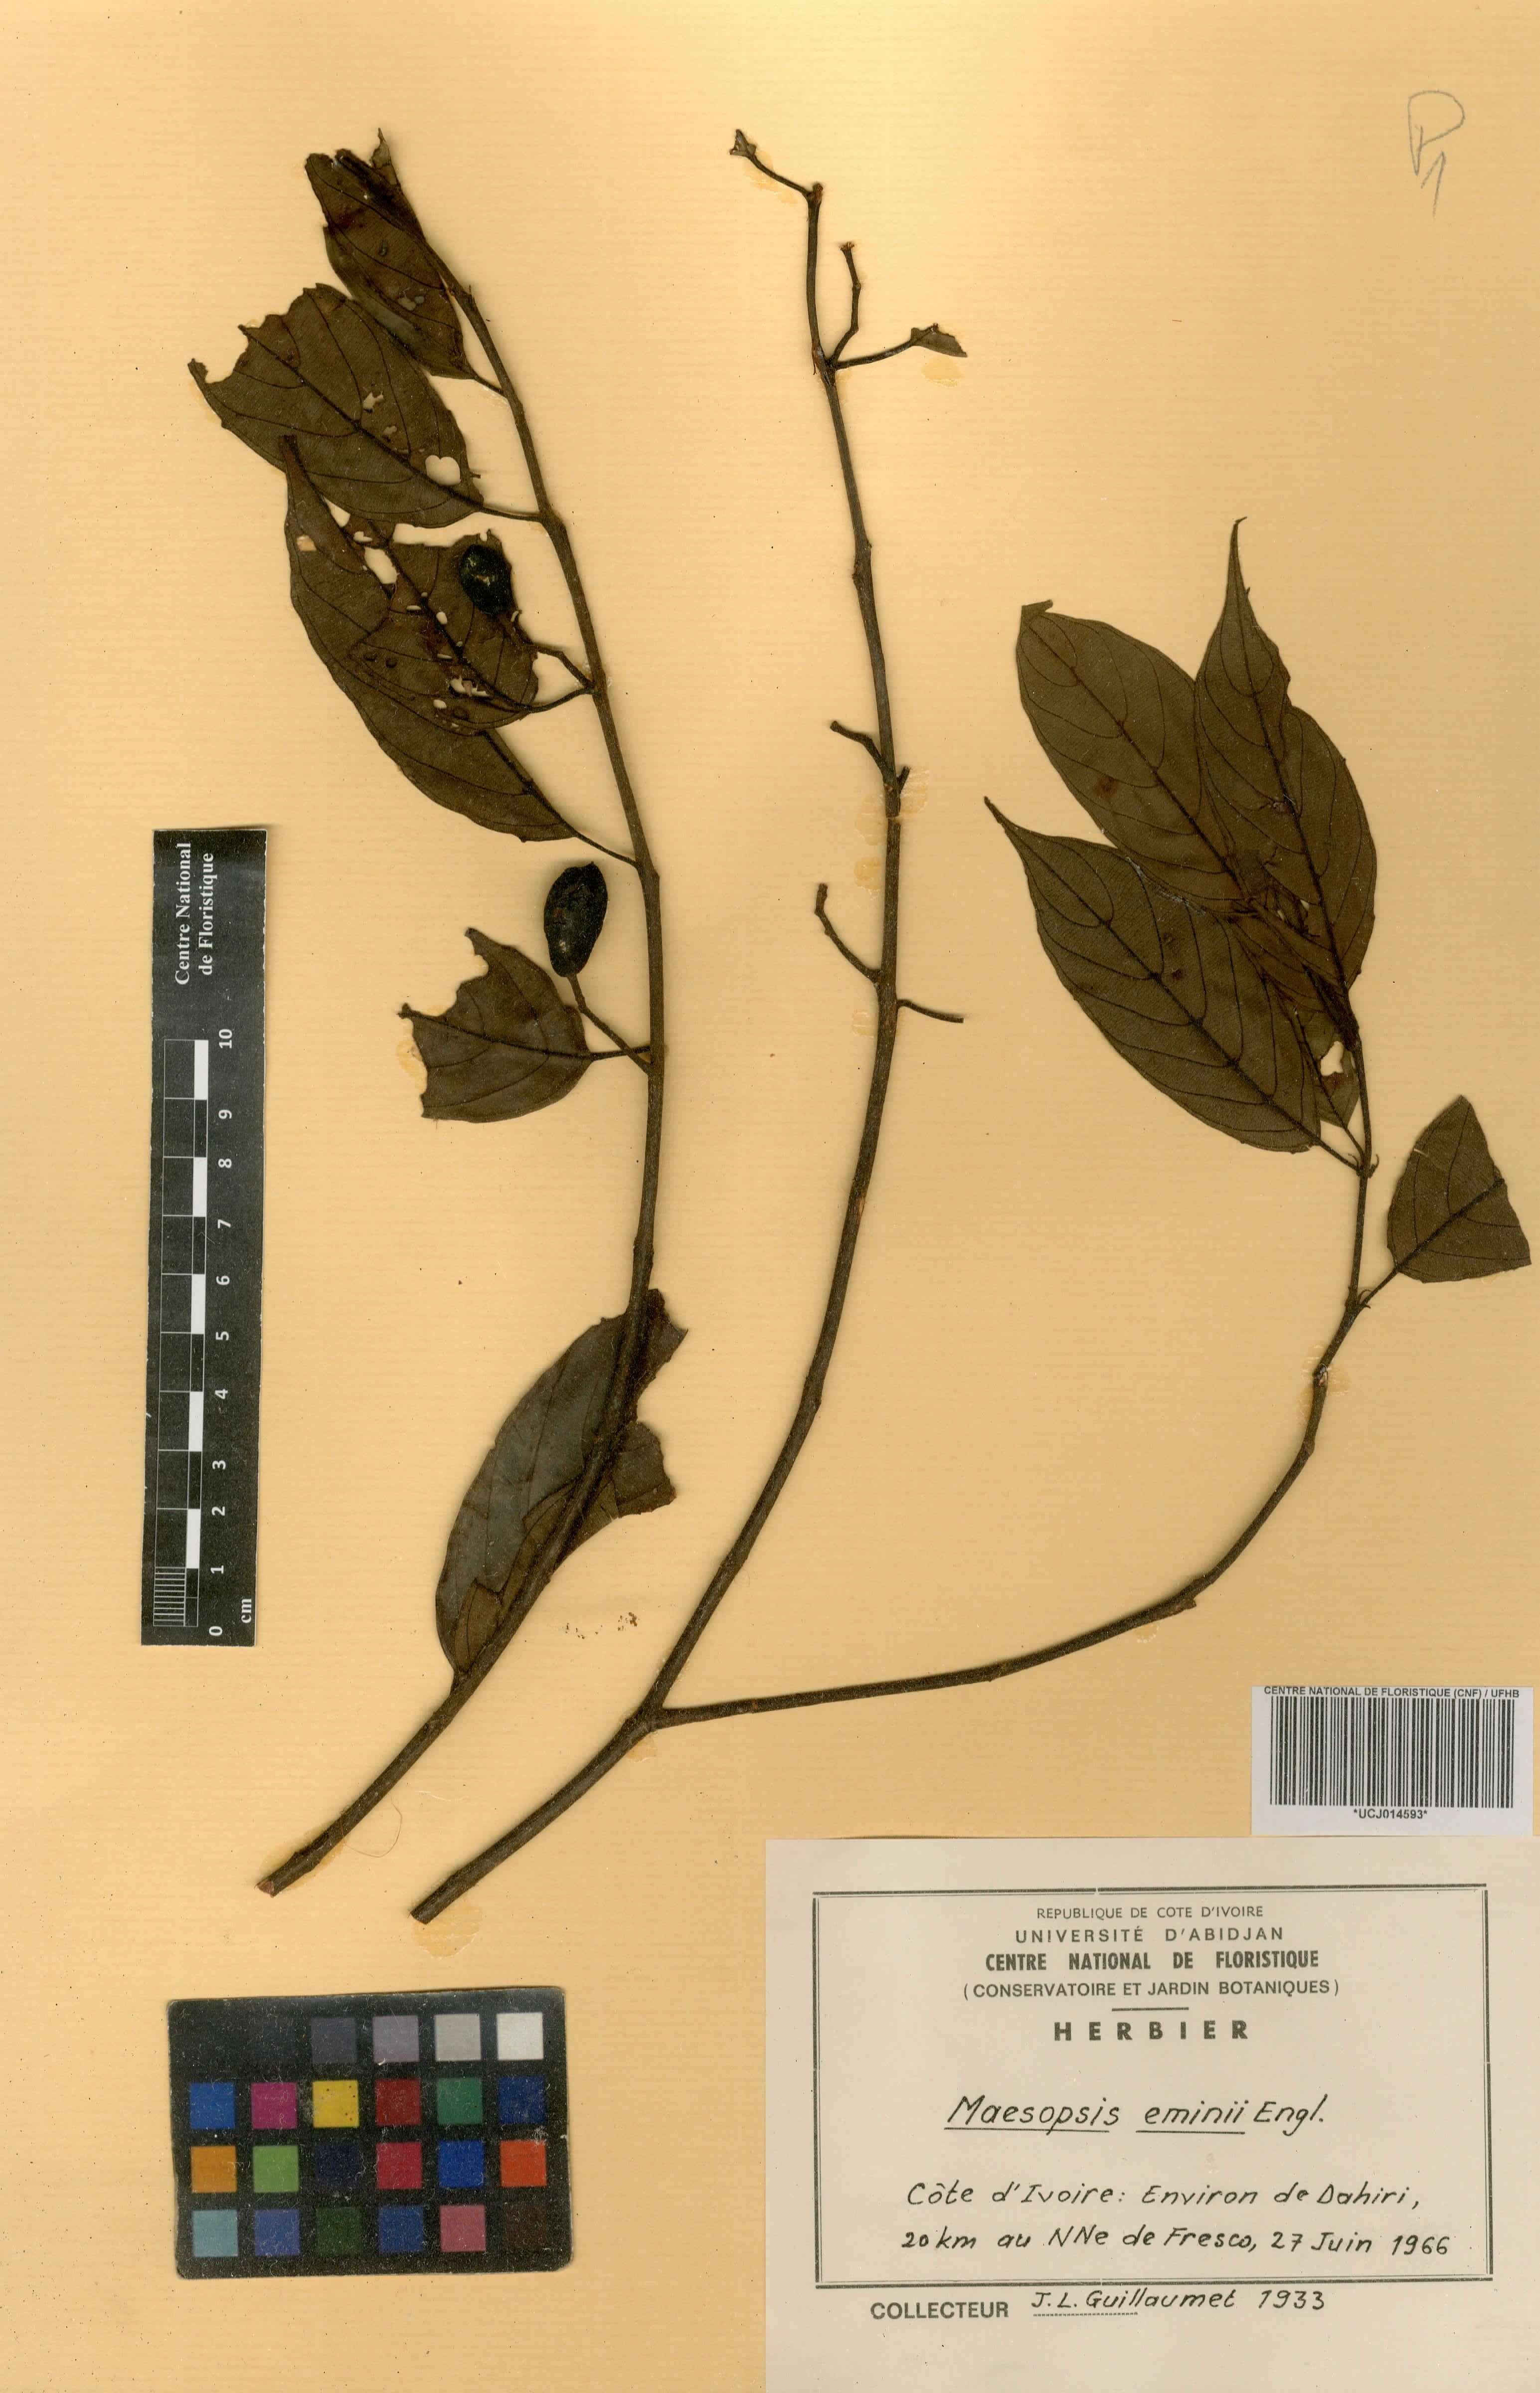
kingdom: Plantae
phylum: Tracheophyta
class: Magnoliopsida
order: Rosales
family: Rhamnaceae
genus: Maesopsis
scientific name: Maesopsis eminii
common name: Umbrella tree
